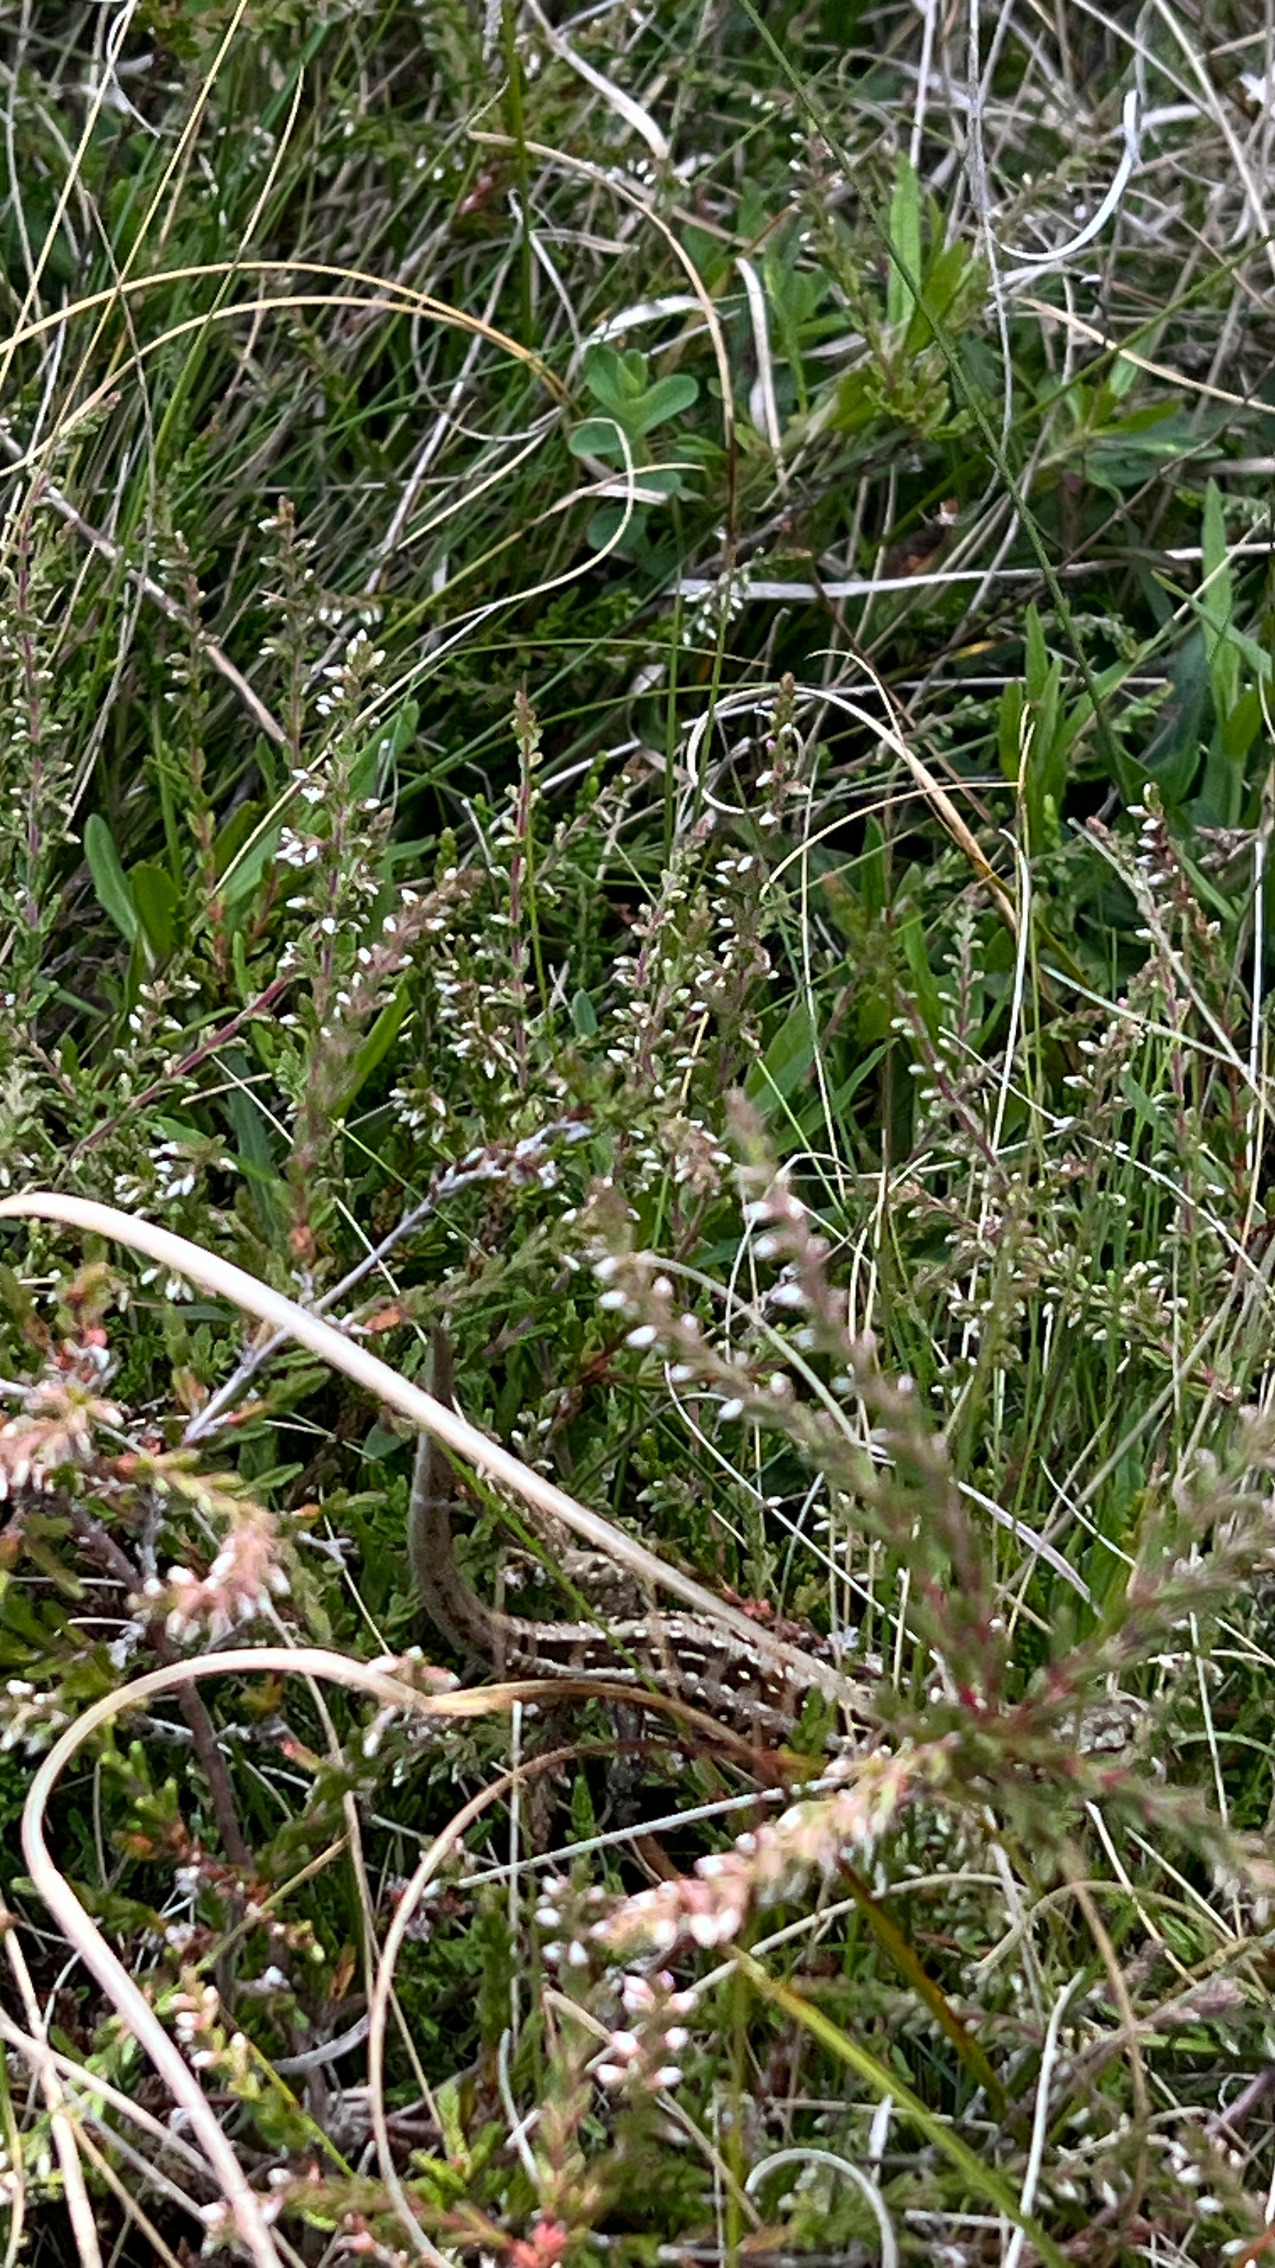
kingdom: Animalia
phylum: Chordata
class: Squamata
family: Lacertidae
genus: Lacerta
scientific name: Lacerta agilis
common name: Markfirben
